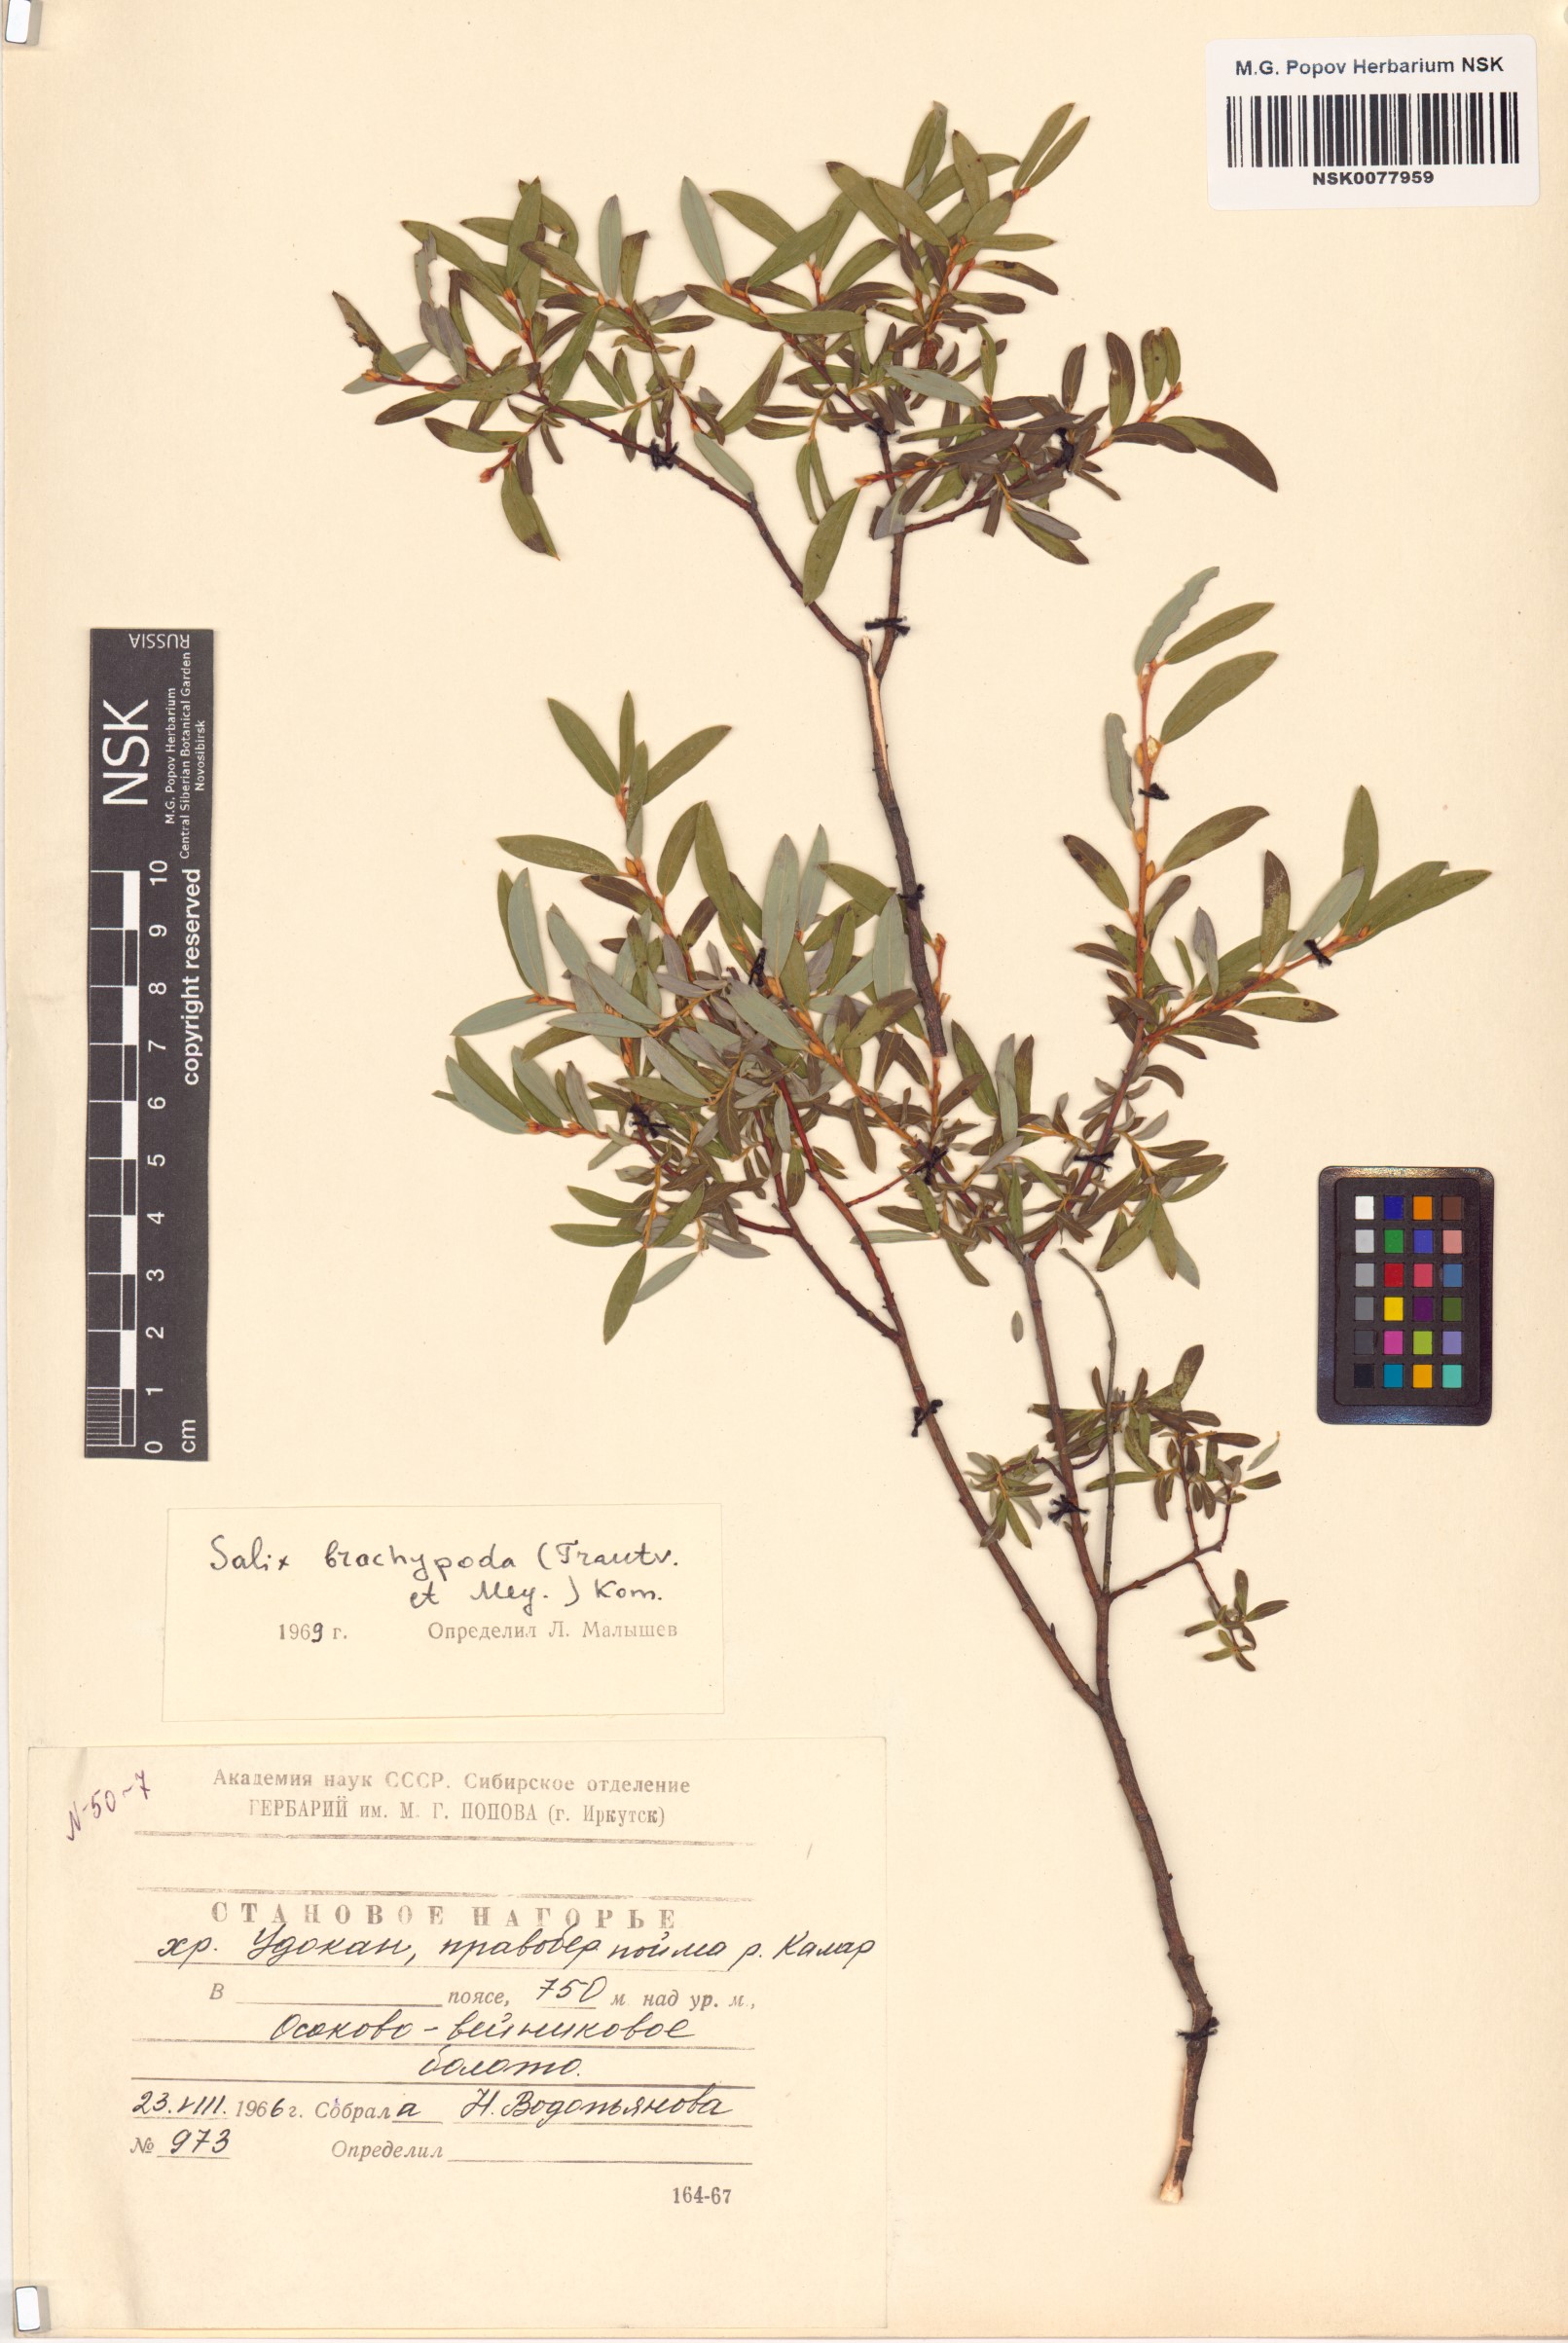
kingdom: Plantae
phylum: Tracheophyta
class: Magnoliopsida
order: Malpighiales
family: Salicaceae
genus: Salix
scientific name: Salix brachypoda
